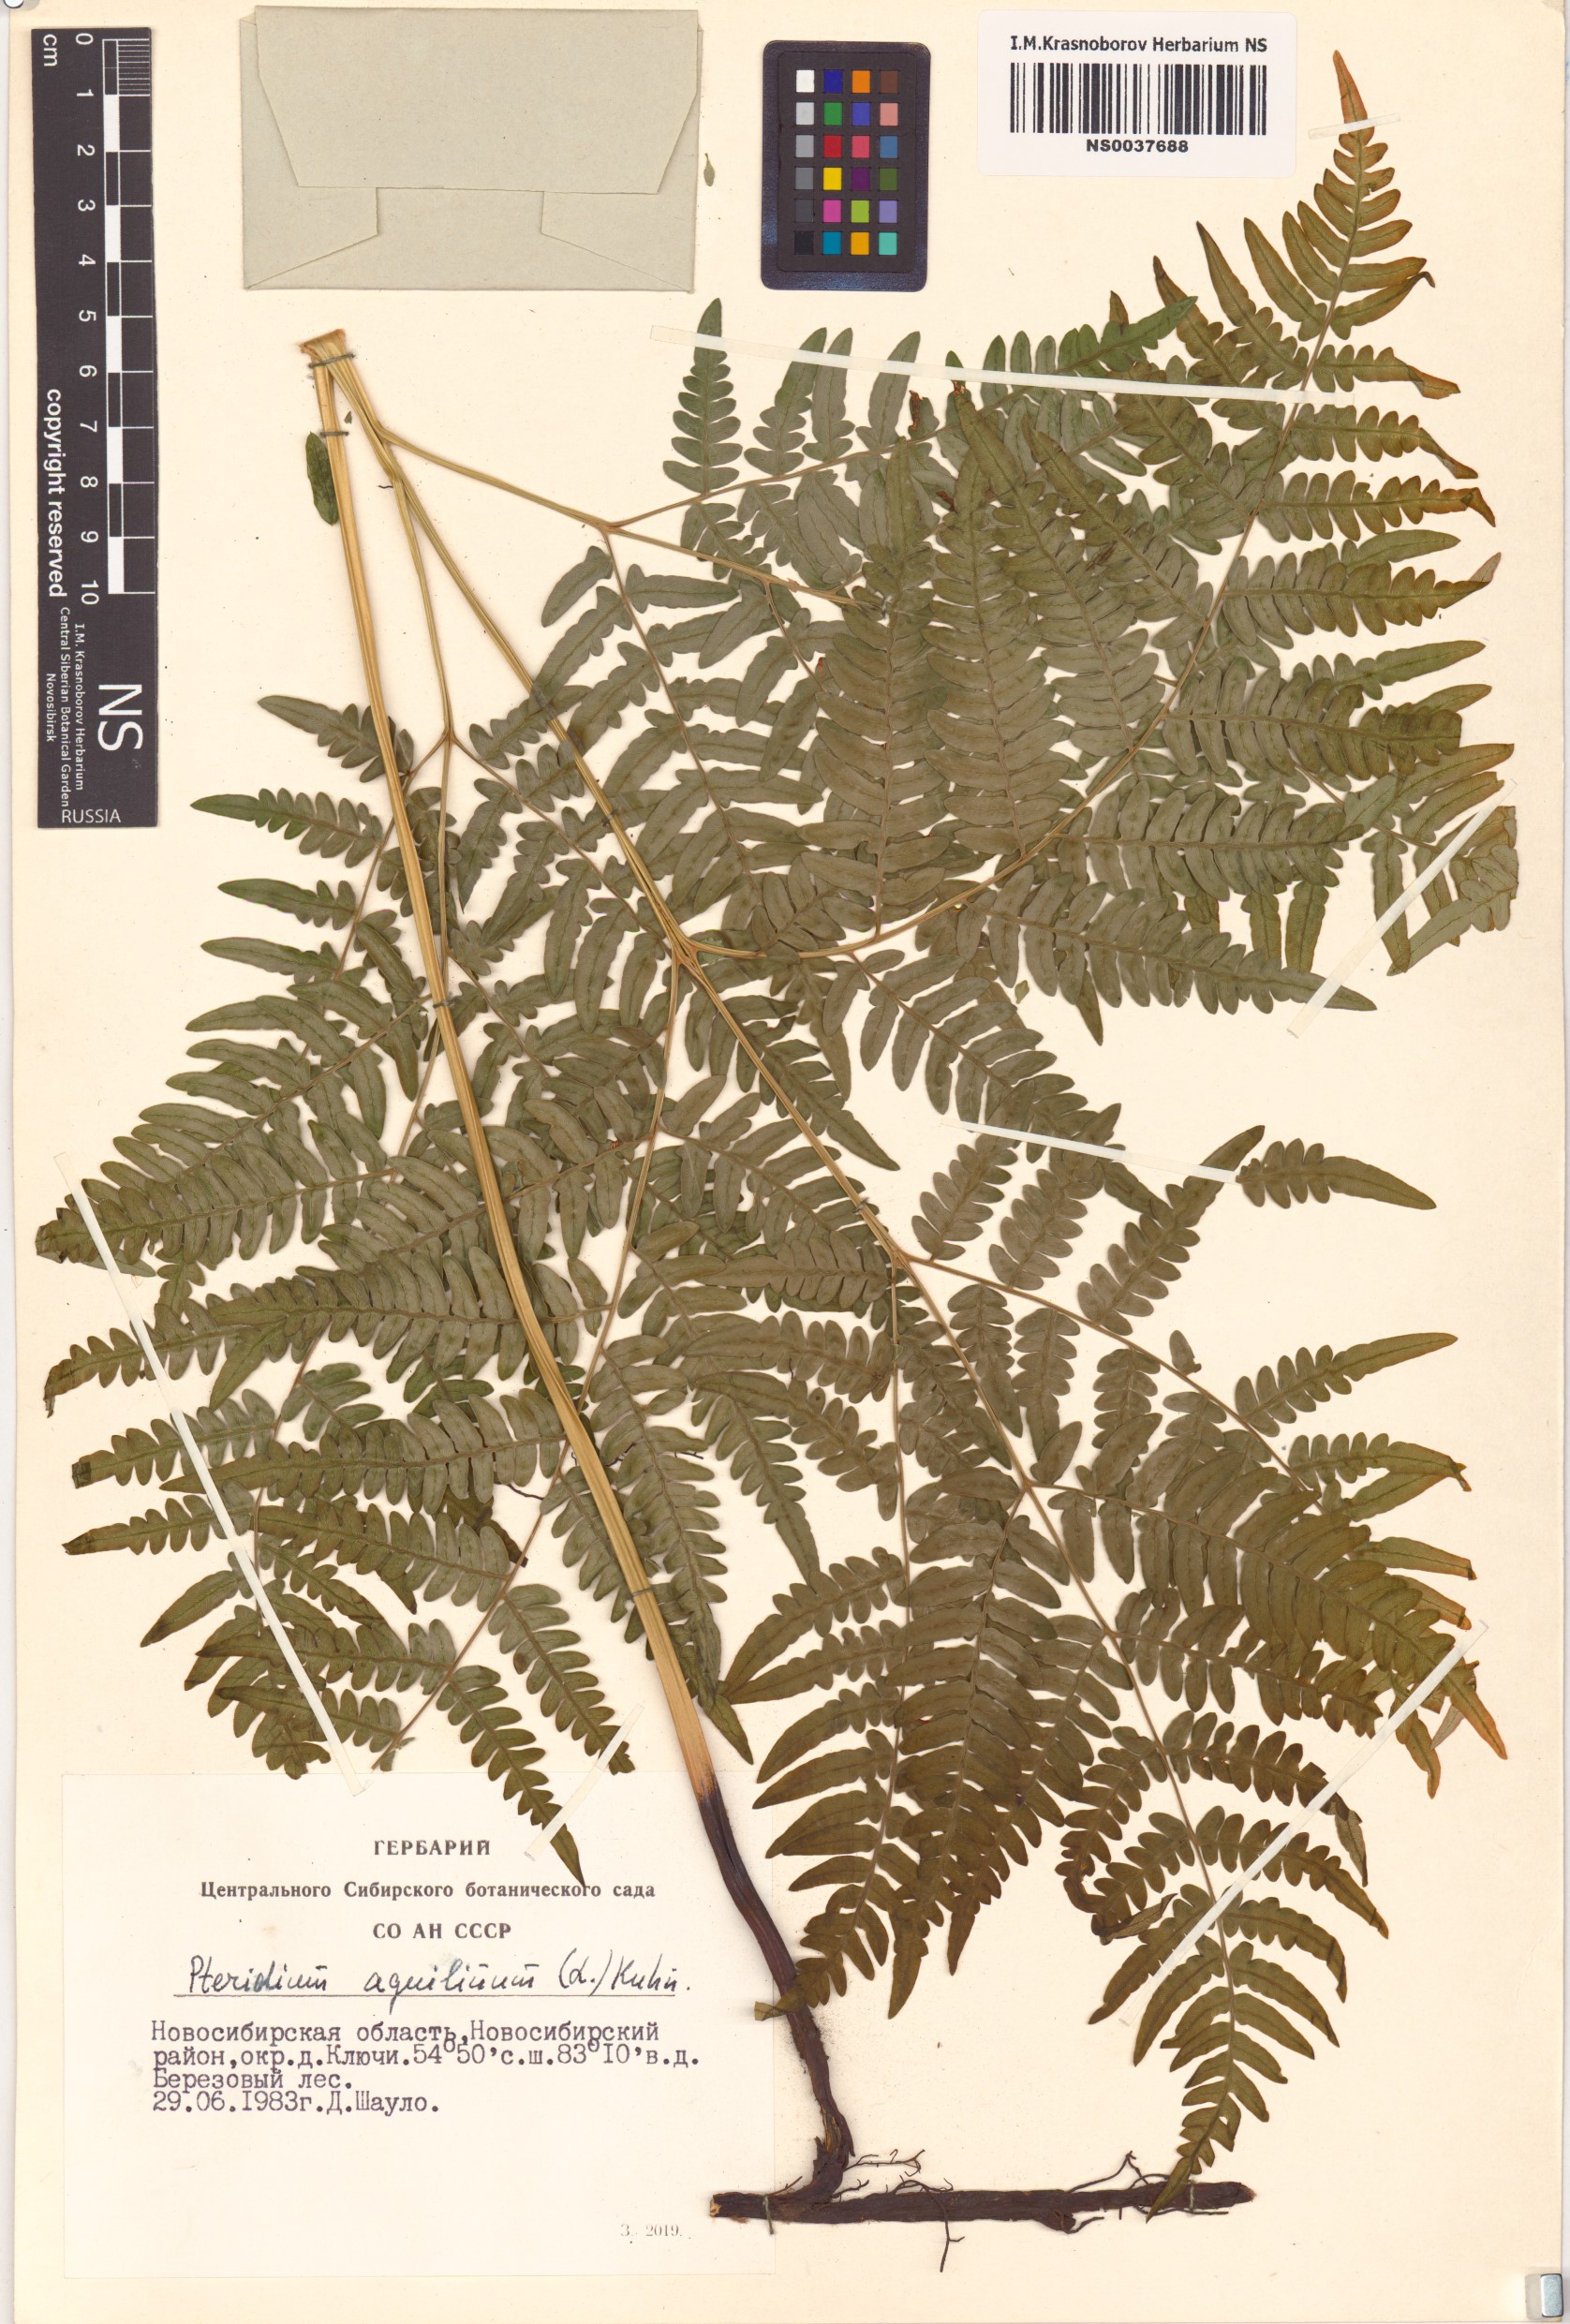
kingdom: Plantae
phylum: Tracheophyta
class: Polypodiopsida
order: Polypodiales
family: Dennstaedtiaceae
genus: Pteridium
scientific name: Pteridium aquilinum
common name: Bracken
